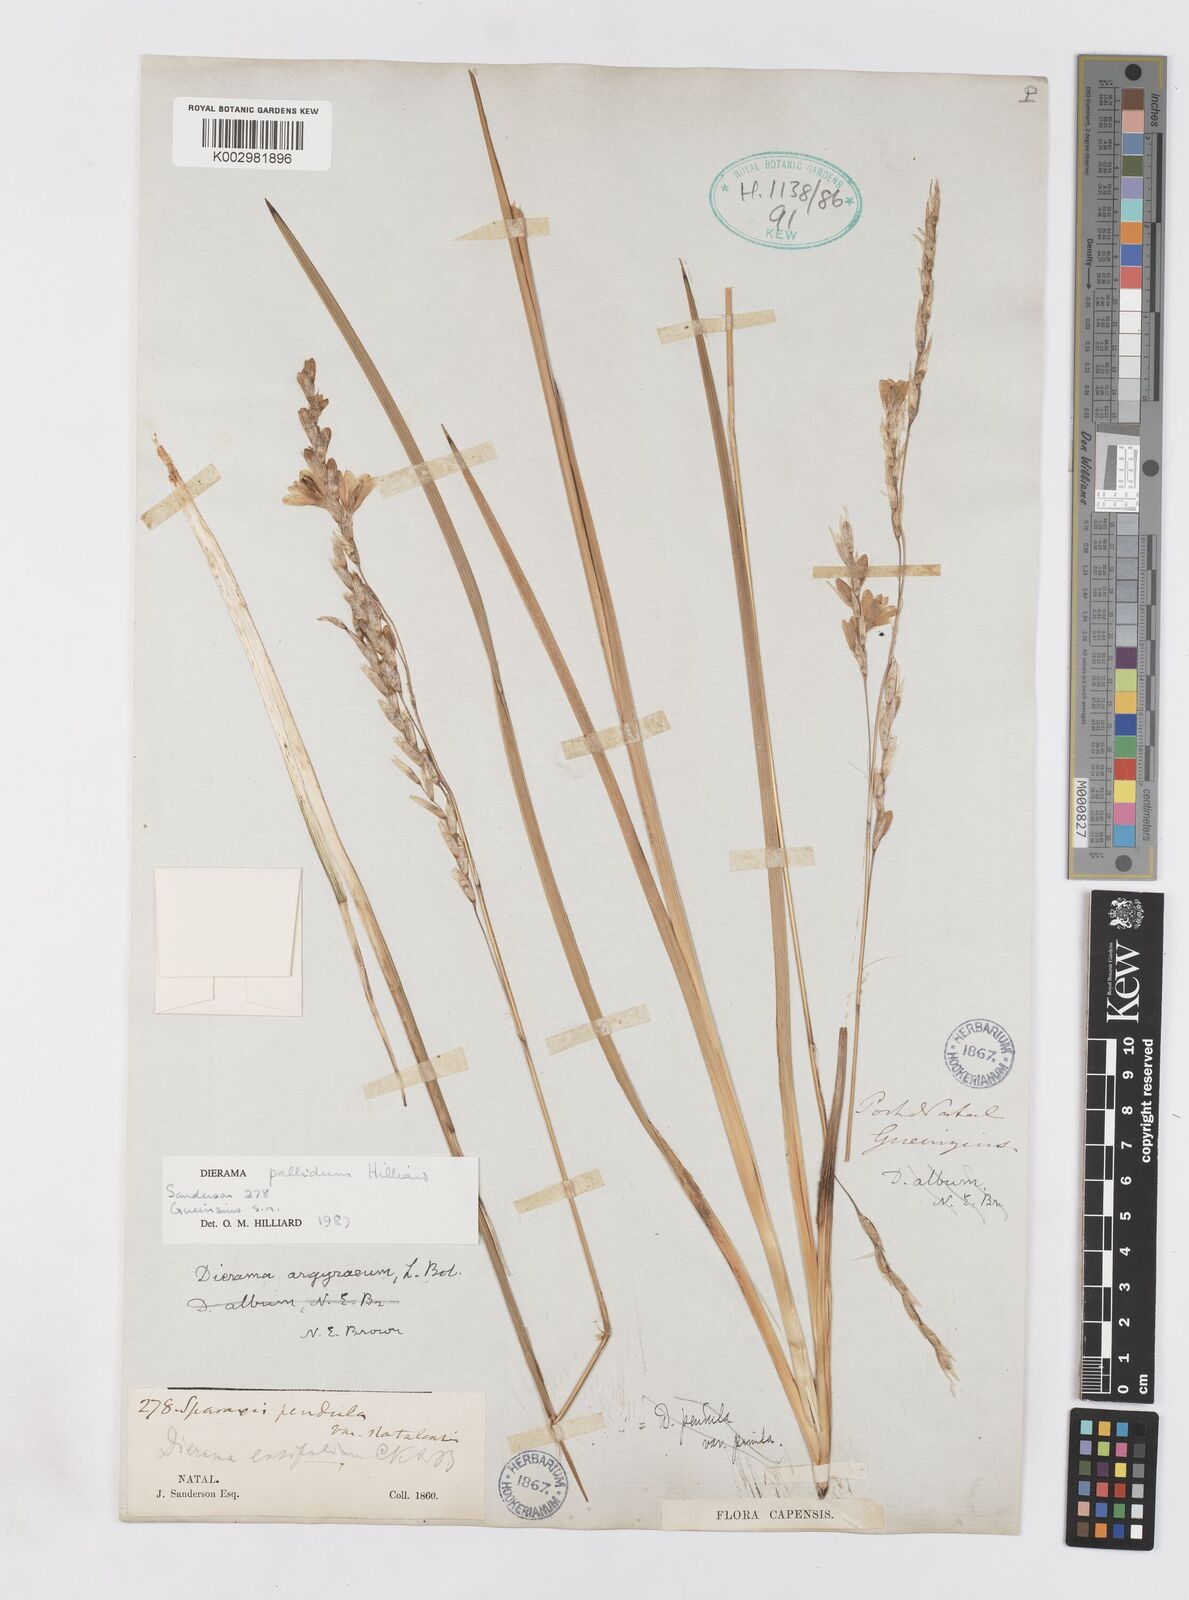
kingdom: Plantae
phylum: Tracheophyta
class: Liliopsida
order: Asparagales
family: Iridaceae
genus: Dierama
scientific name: Dierama pallidum
